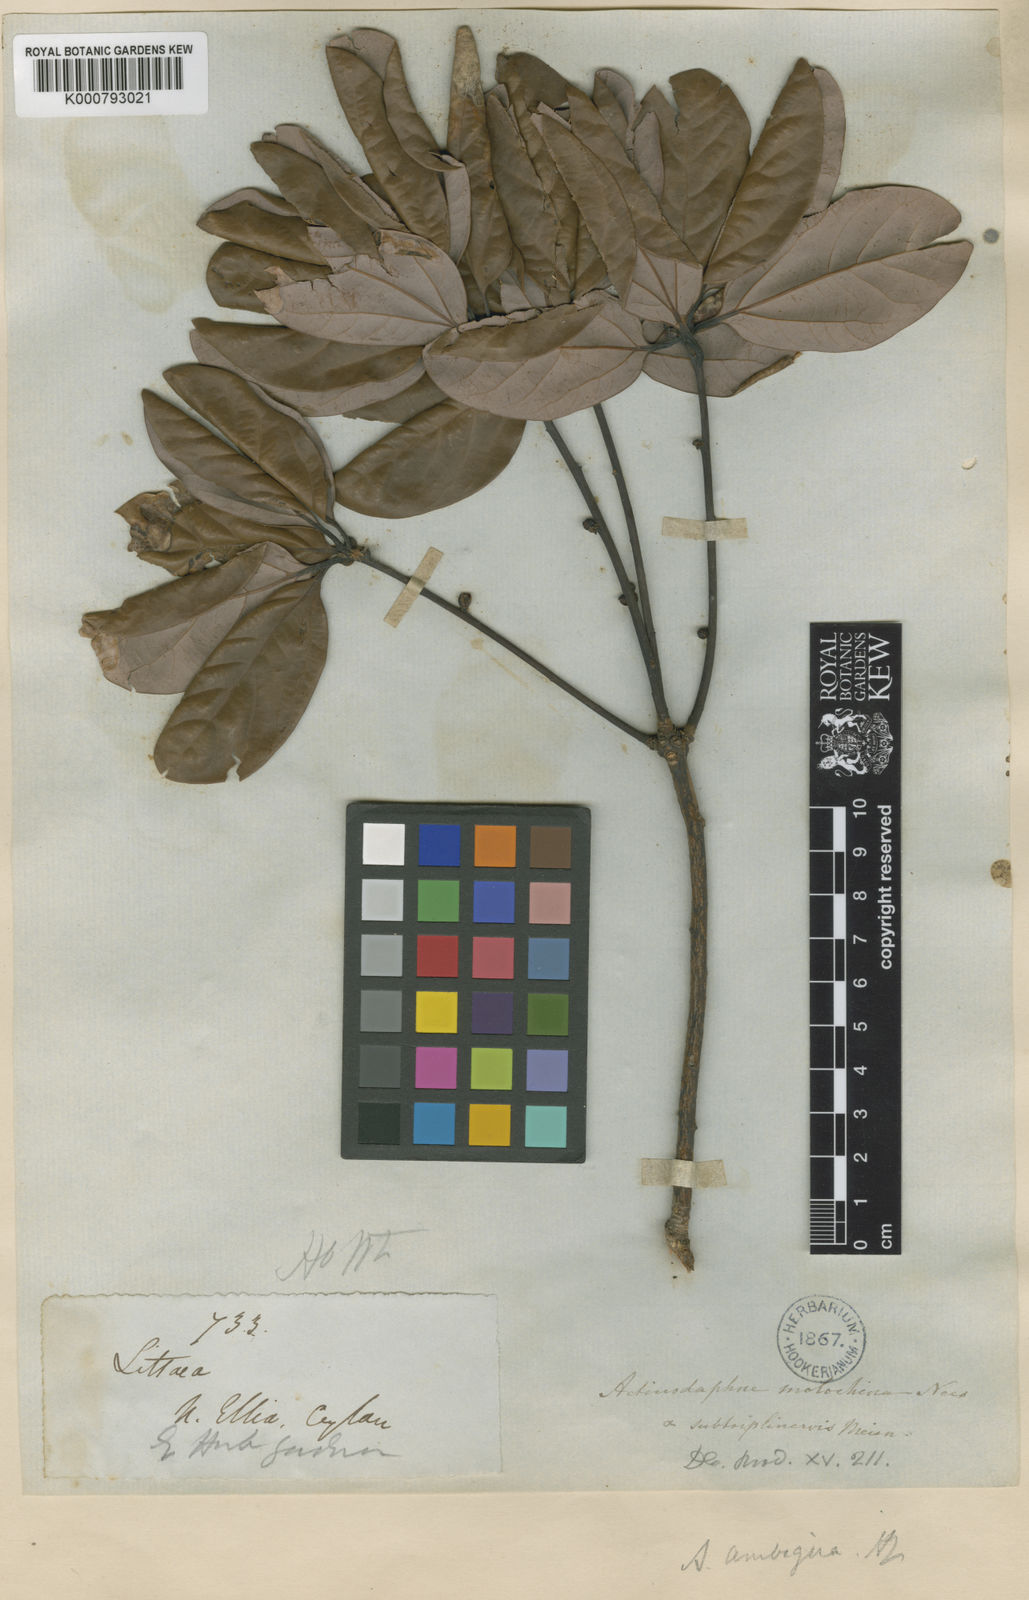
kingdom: Plantae
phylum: Tracheophyta
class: Magnoliopsida
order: Laurales
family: Lauraceae
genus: Actinodaphne
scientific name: Actinodaphne ambigua
